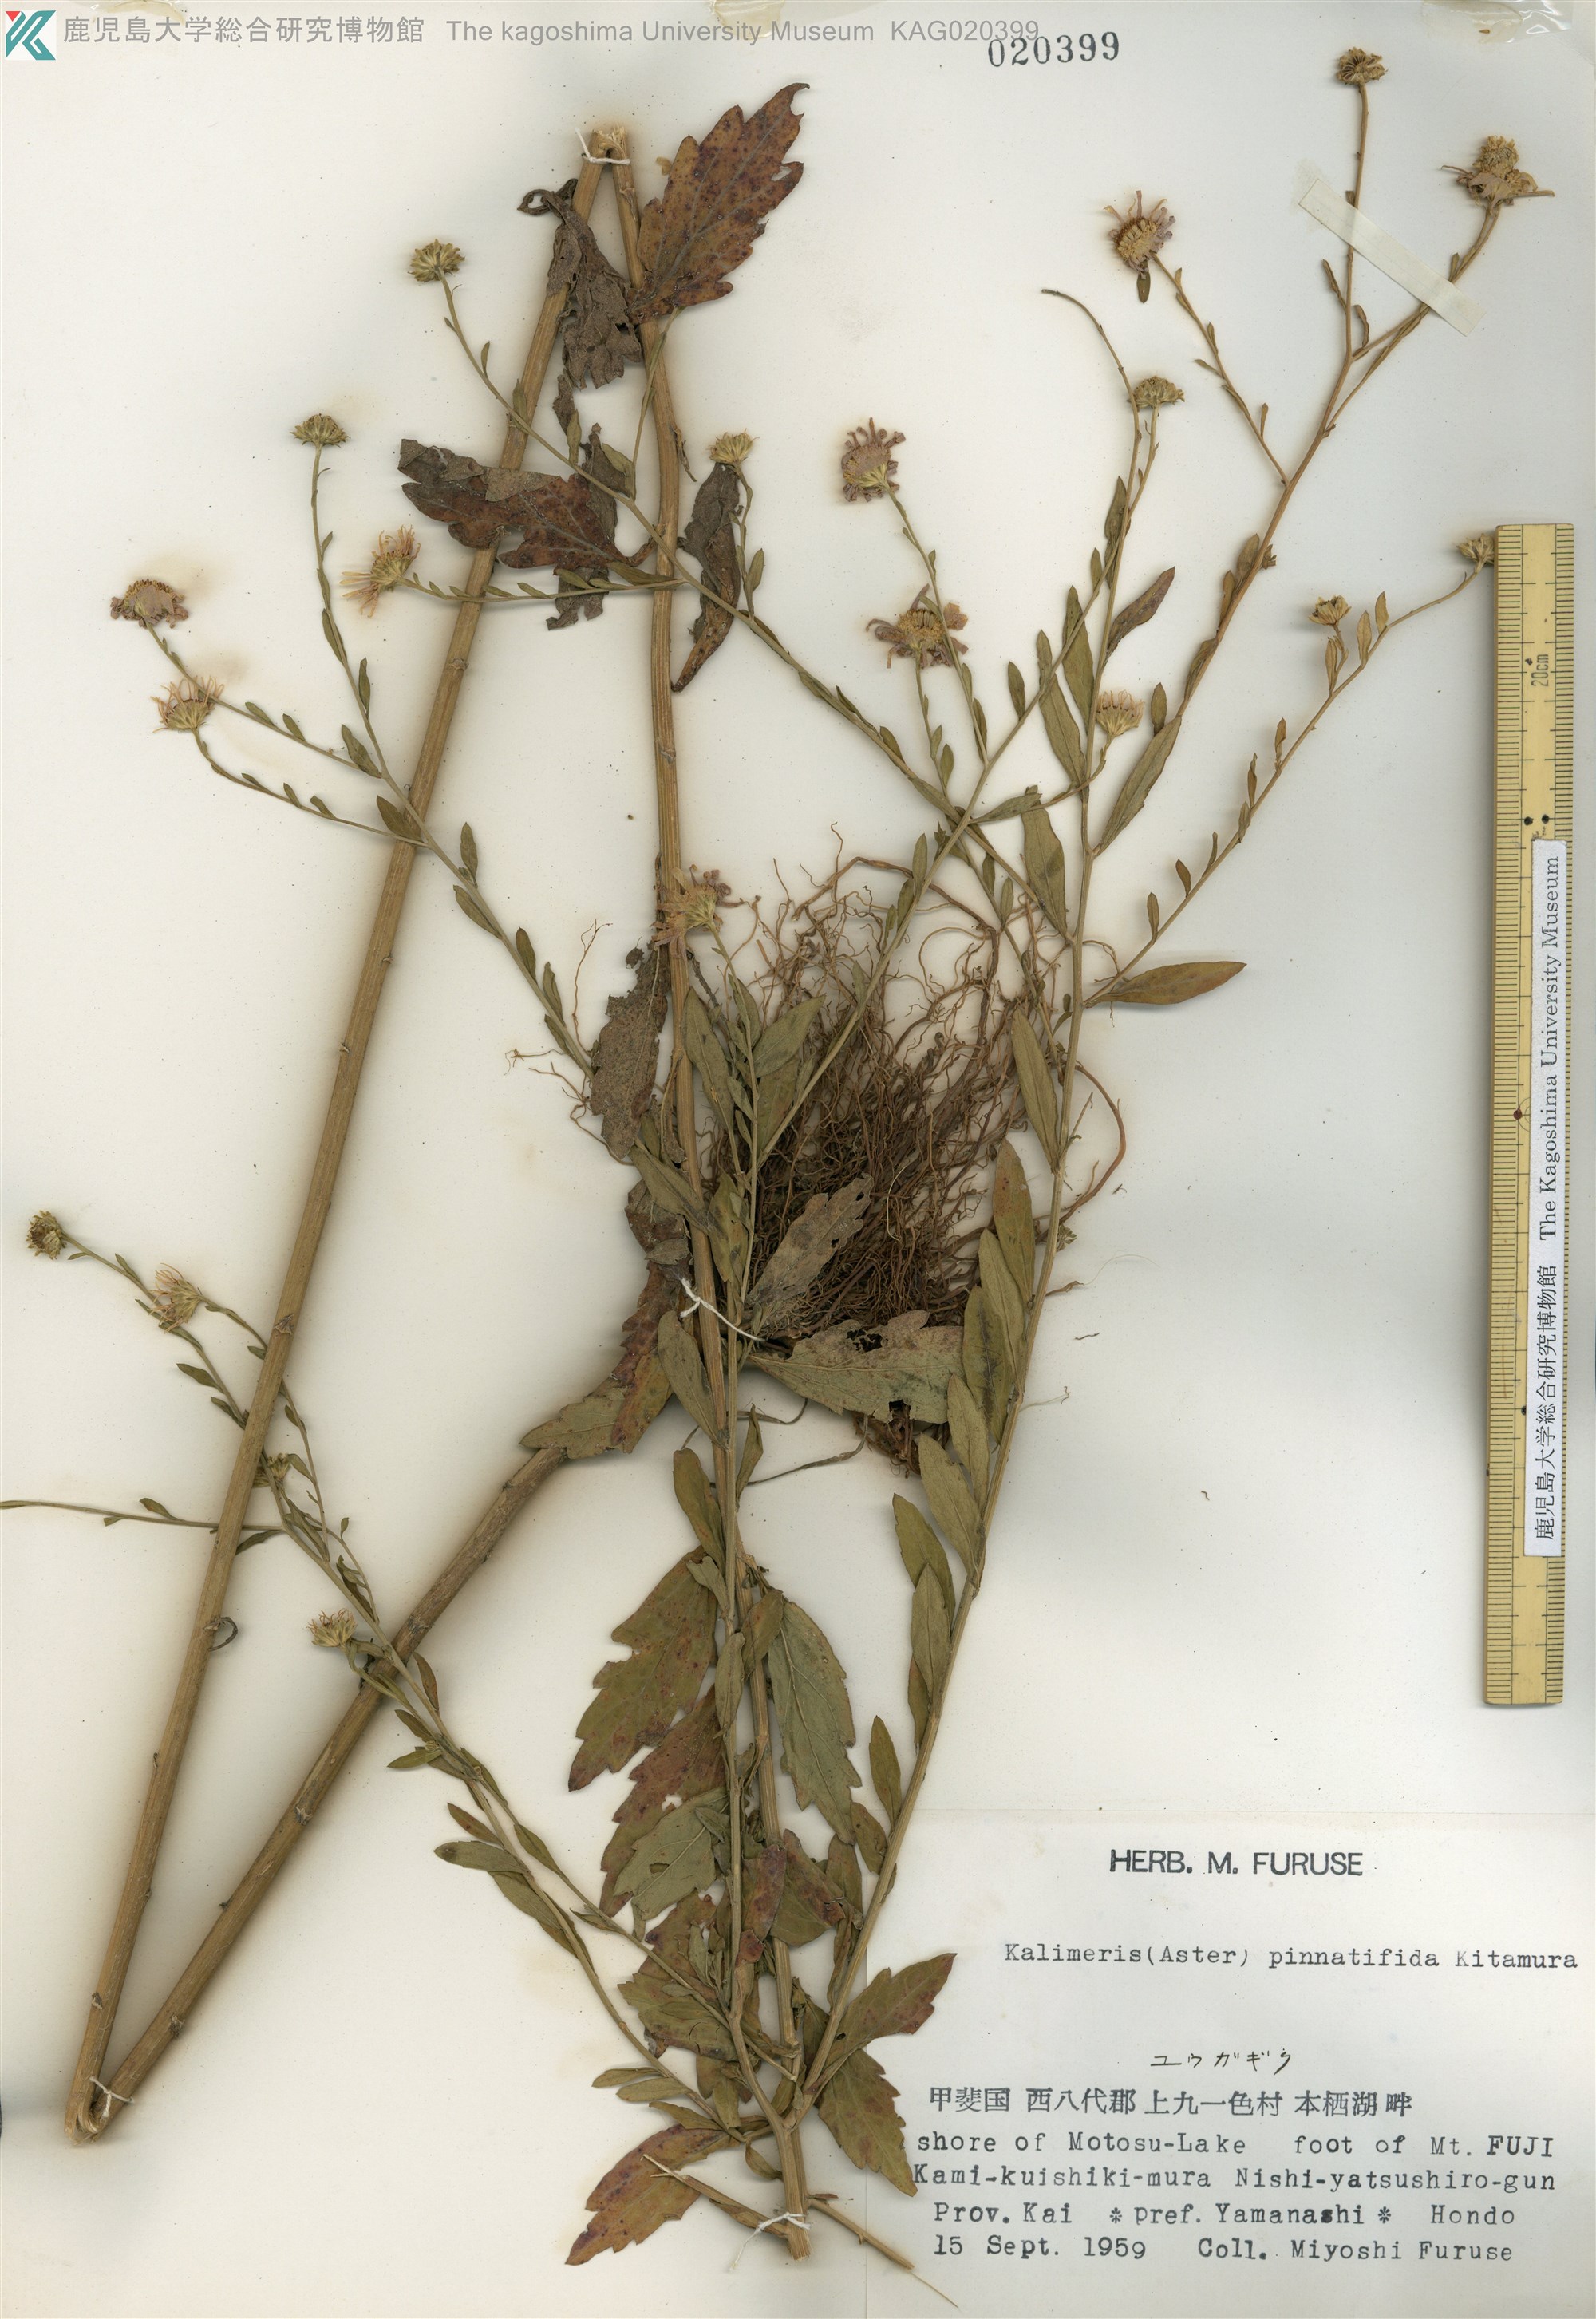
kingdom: Plantae
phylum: Tracheophyta
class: Magnoliopsida
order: Asterales
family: Asteraceae
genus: Kalimeris
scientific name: Kalimeris pinnatifida
